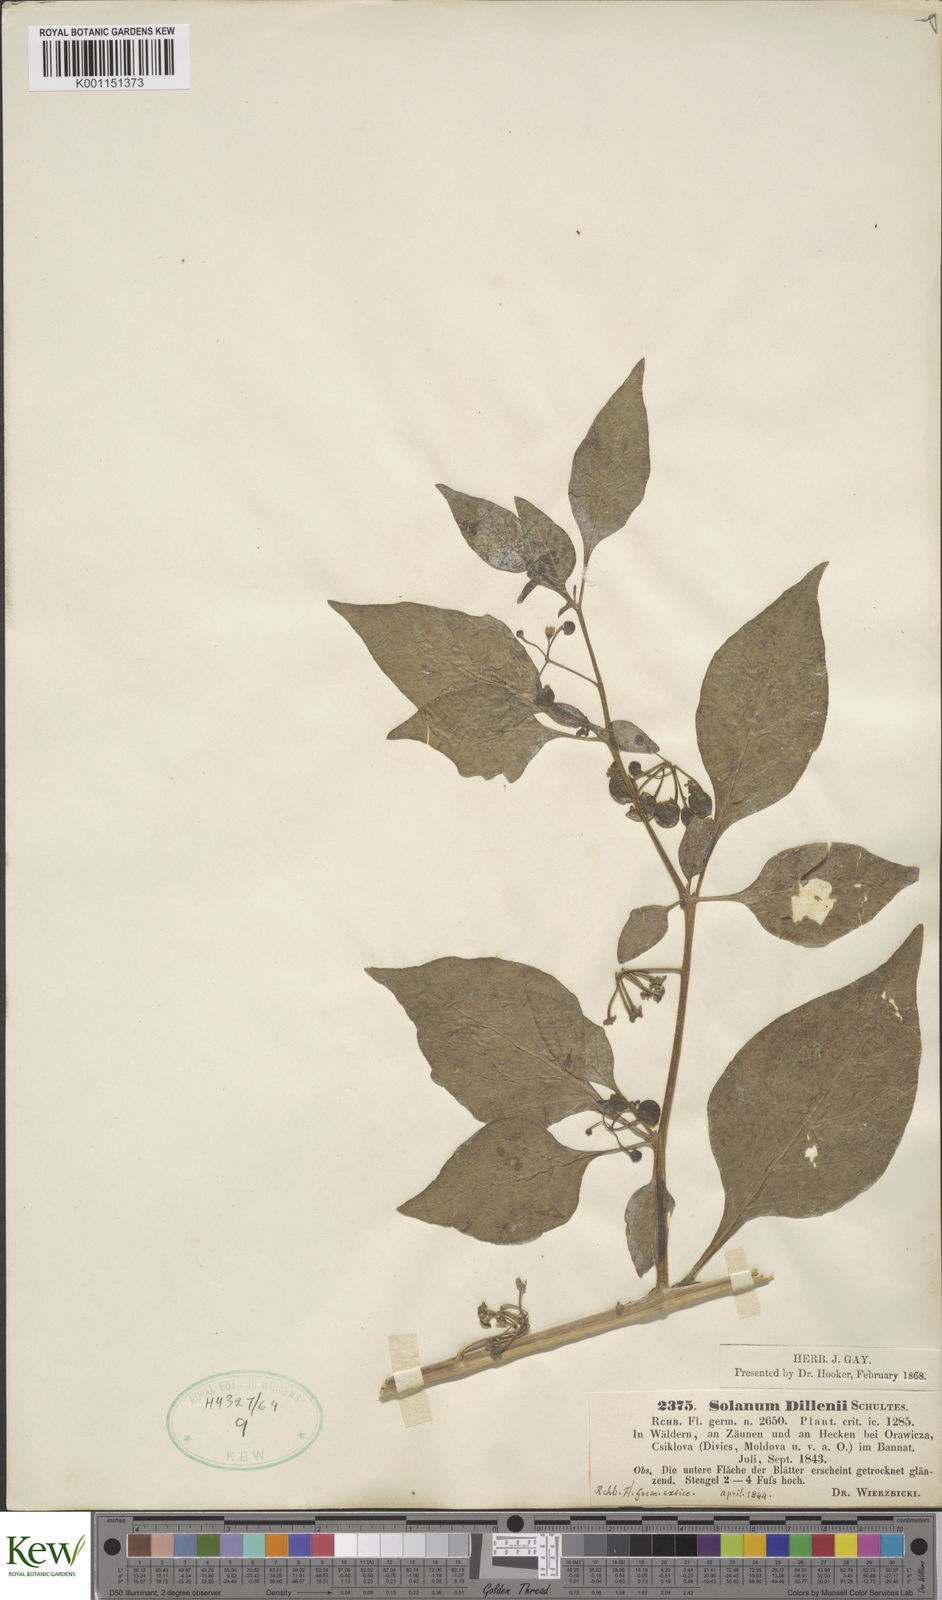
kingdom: Plantae
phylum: Tracheophyta
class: Magnoliopsida
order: Solanales
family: Solanaceae
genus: Solanum
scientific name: Solanum nigrum
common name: Black nightshade
